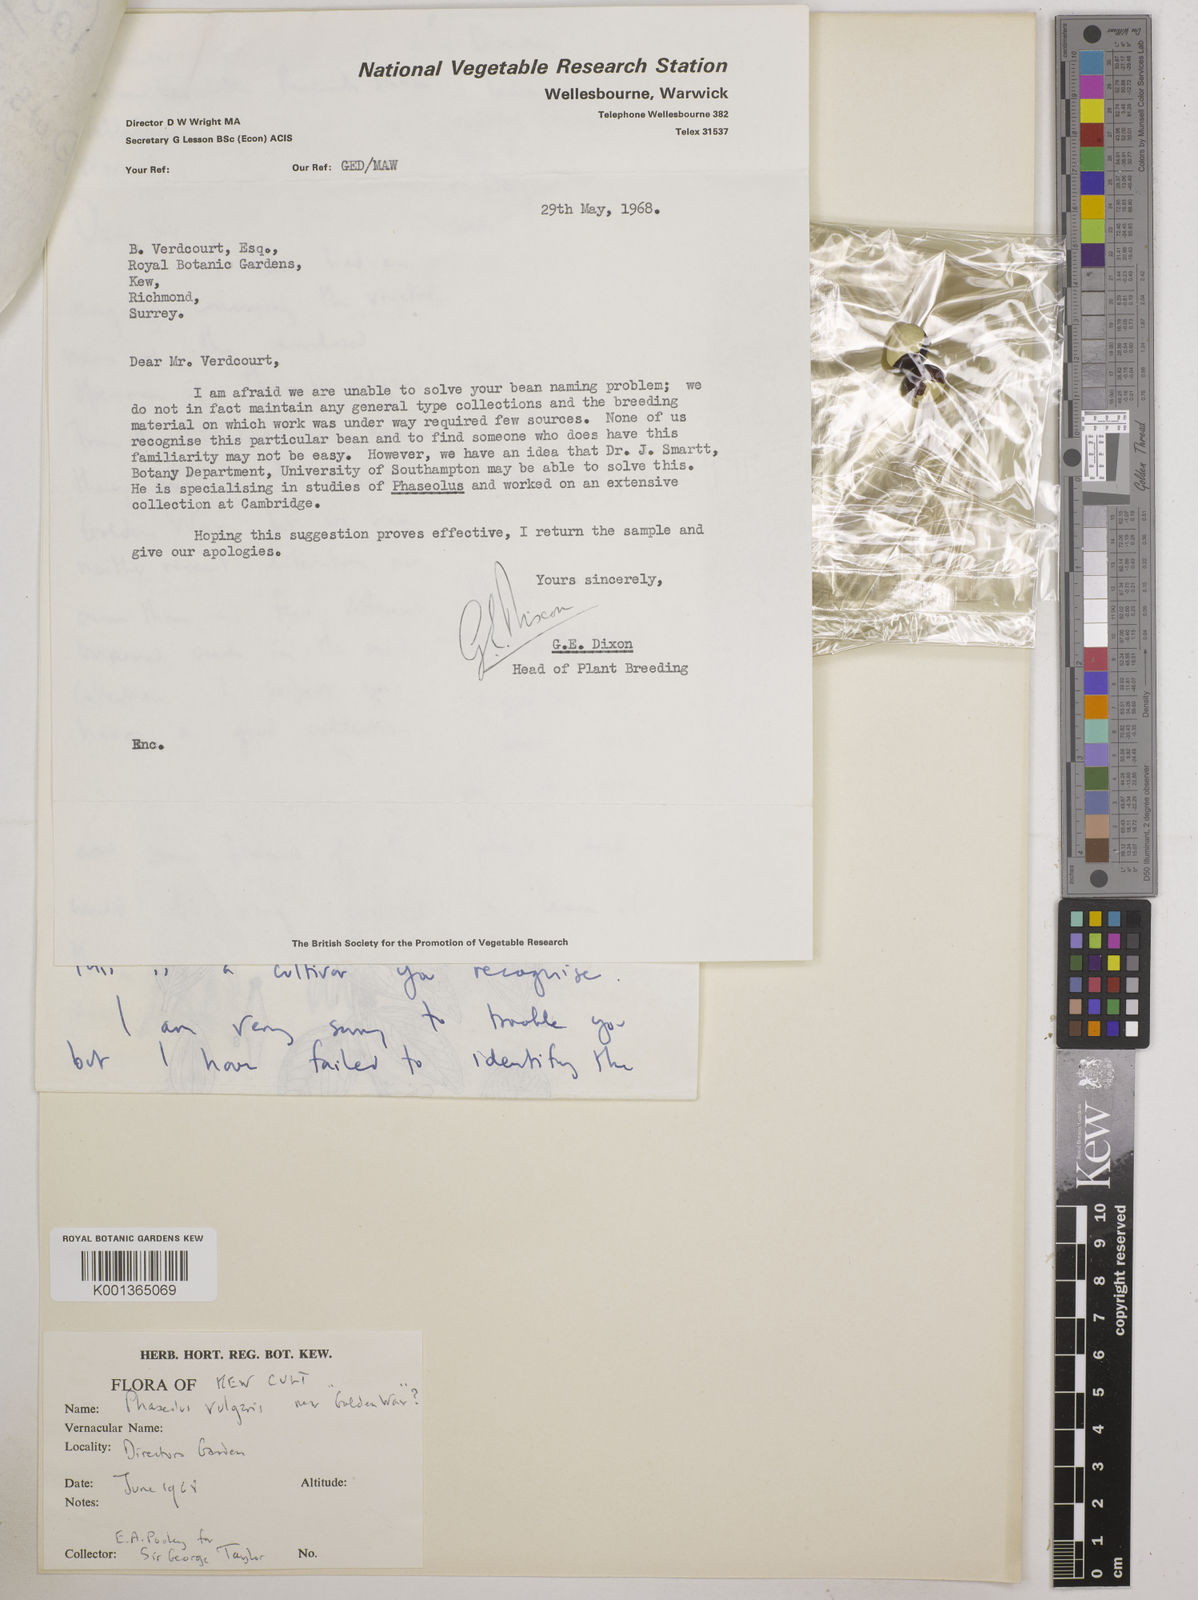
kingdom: Plantae
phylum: Tracheophyta
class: Magnoliopsida
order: Fabales
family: Fabaceae
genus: Phaseolus
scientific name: Phaseolus vulgaris
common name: Bean
